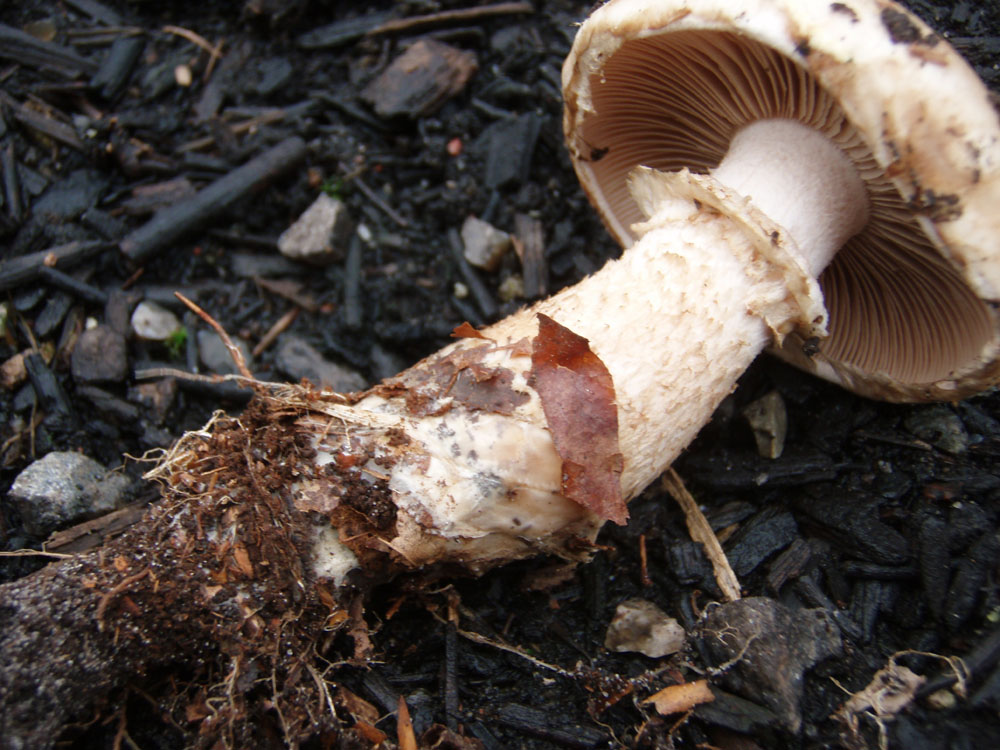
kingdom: Fungi
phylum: Basidiomycota
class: Agaricomycetes
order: Agaricales
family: Hymenogastraceae
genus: Hebeloma
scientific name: Hebeloma radicosum
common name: pælerods-tåreblad
